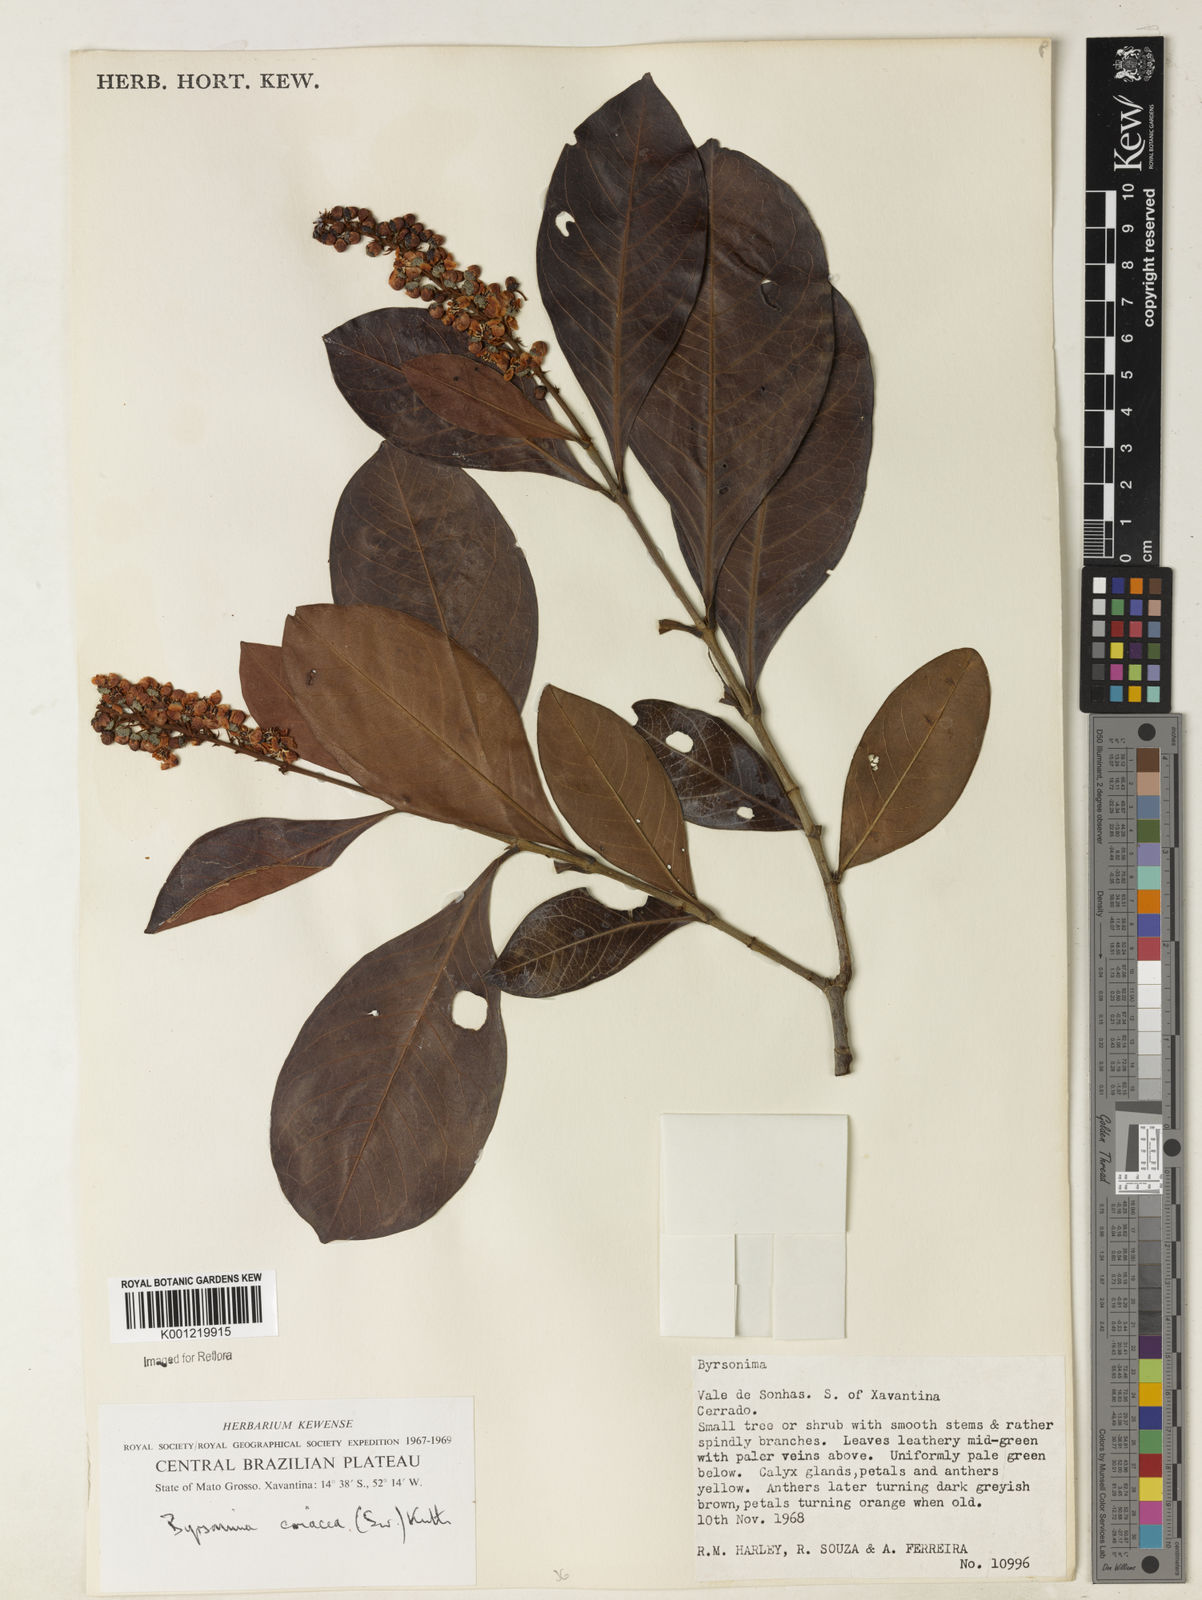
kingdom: Plantae
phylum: Tracheophyta
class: Magnoliopsida
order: Malpighiales
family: Malpighiaceae
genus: Byrsonima
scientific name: Byrsonima
